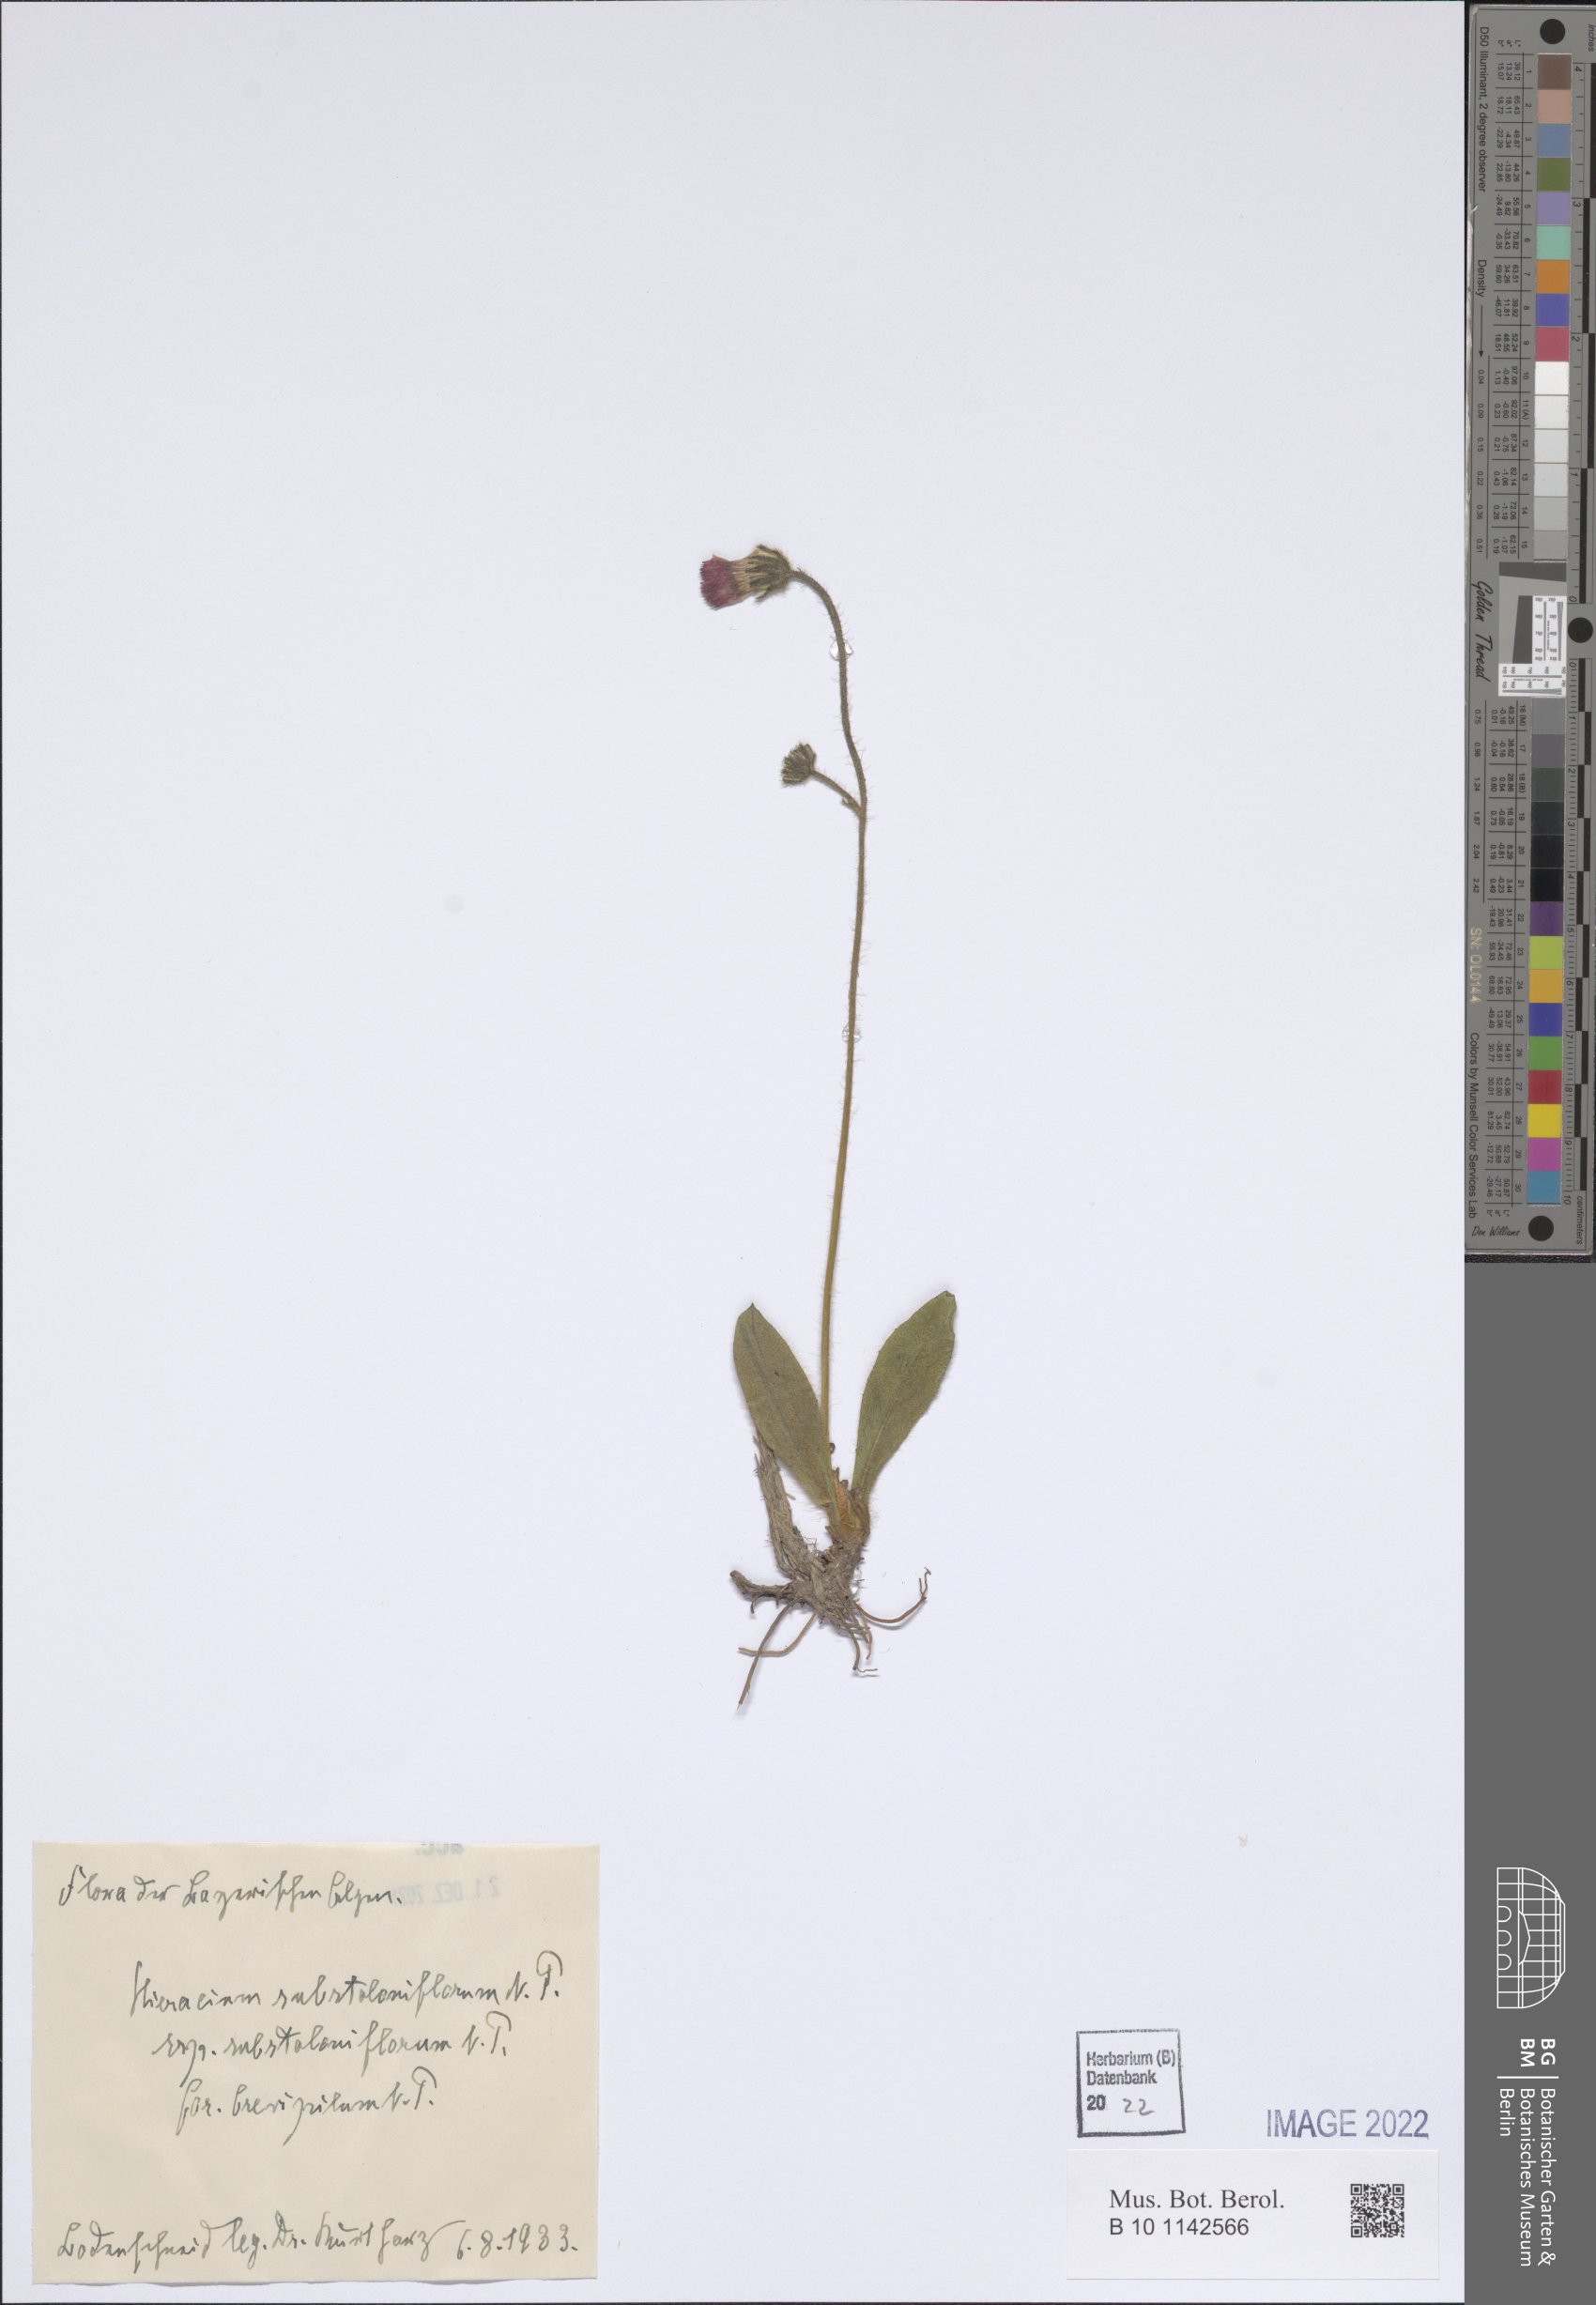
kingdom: Plantae
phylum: Tracheophyta
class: Magnoliopsida
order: Asterales
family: Asteraceae
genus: Pilosella
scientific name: Pilosella aurantiaca
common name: Fox-and-cubs
